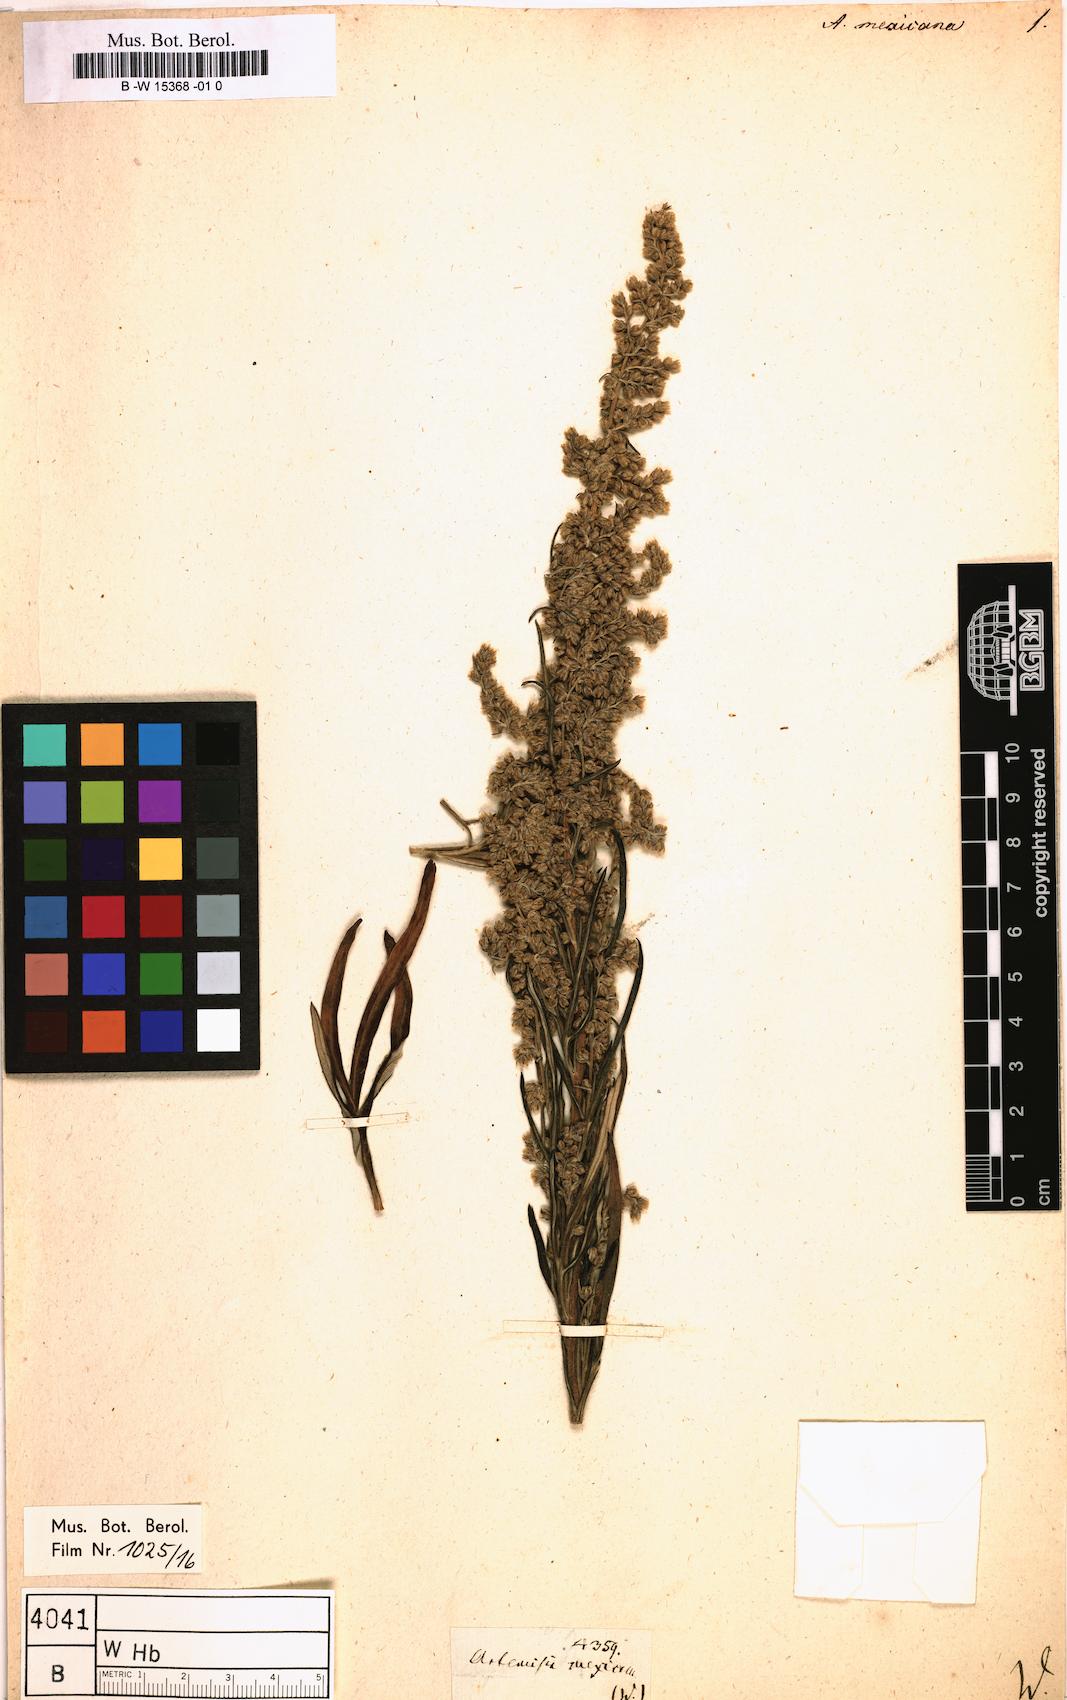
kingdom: Plantae
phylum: Tracheophyta
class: Magnoliopsida
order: Asterales
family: Asteraceae
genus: Artemisia
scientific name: Artemisia ludoviciana
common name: Western mugwort
